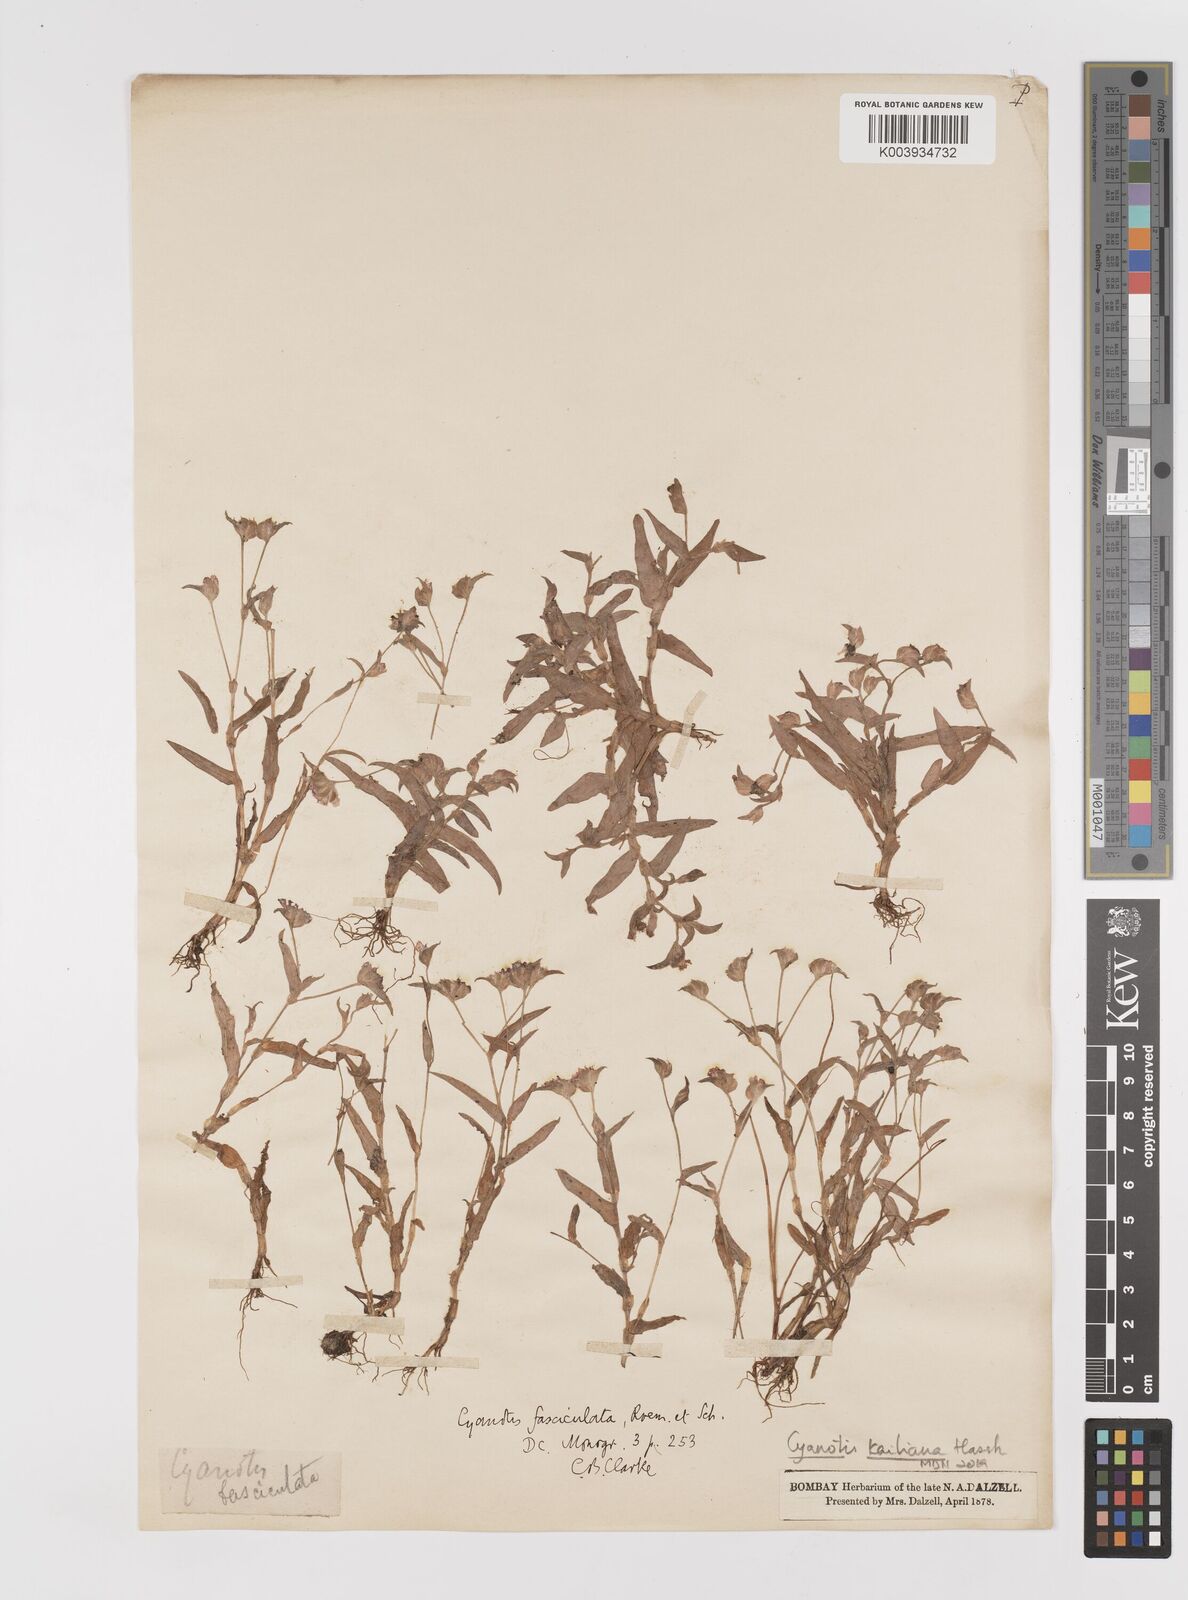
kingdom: Plantae
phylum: Tracheophyta
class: Liliopsida
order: Commelinales
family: Commelinaceae
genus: Cyanotis
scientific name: Cyanotis fasciculata
